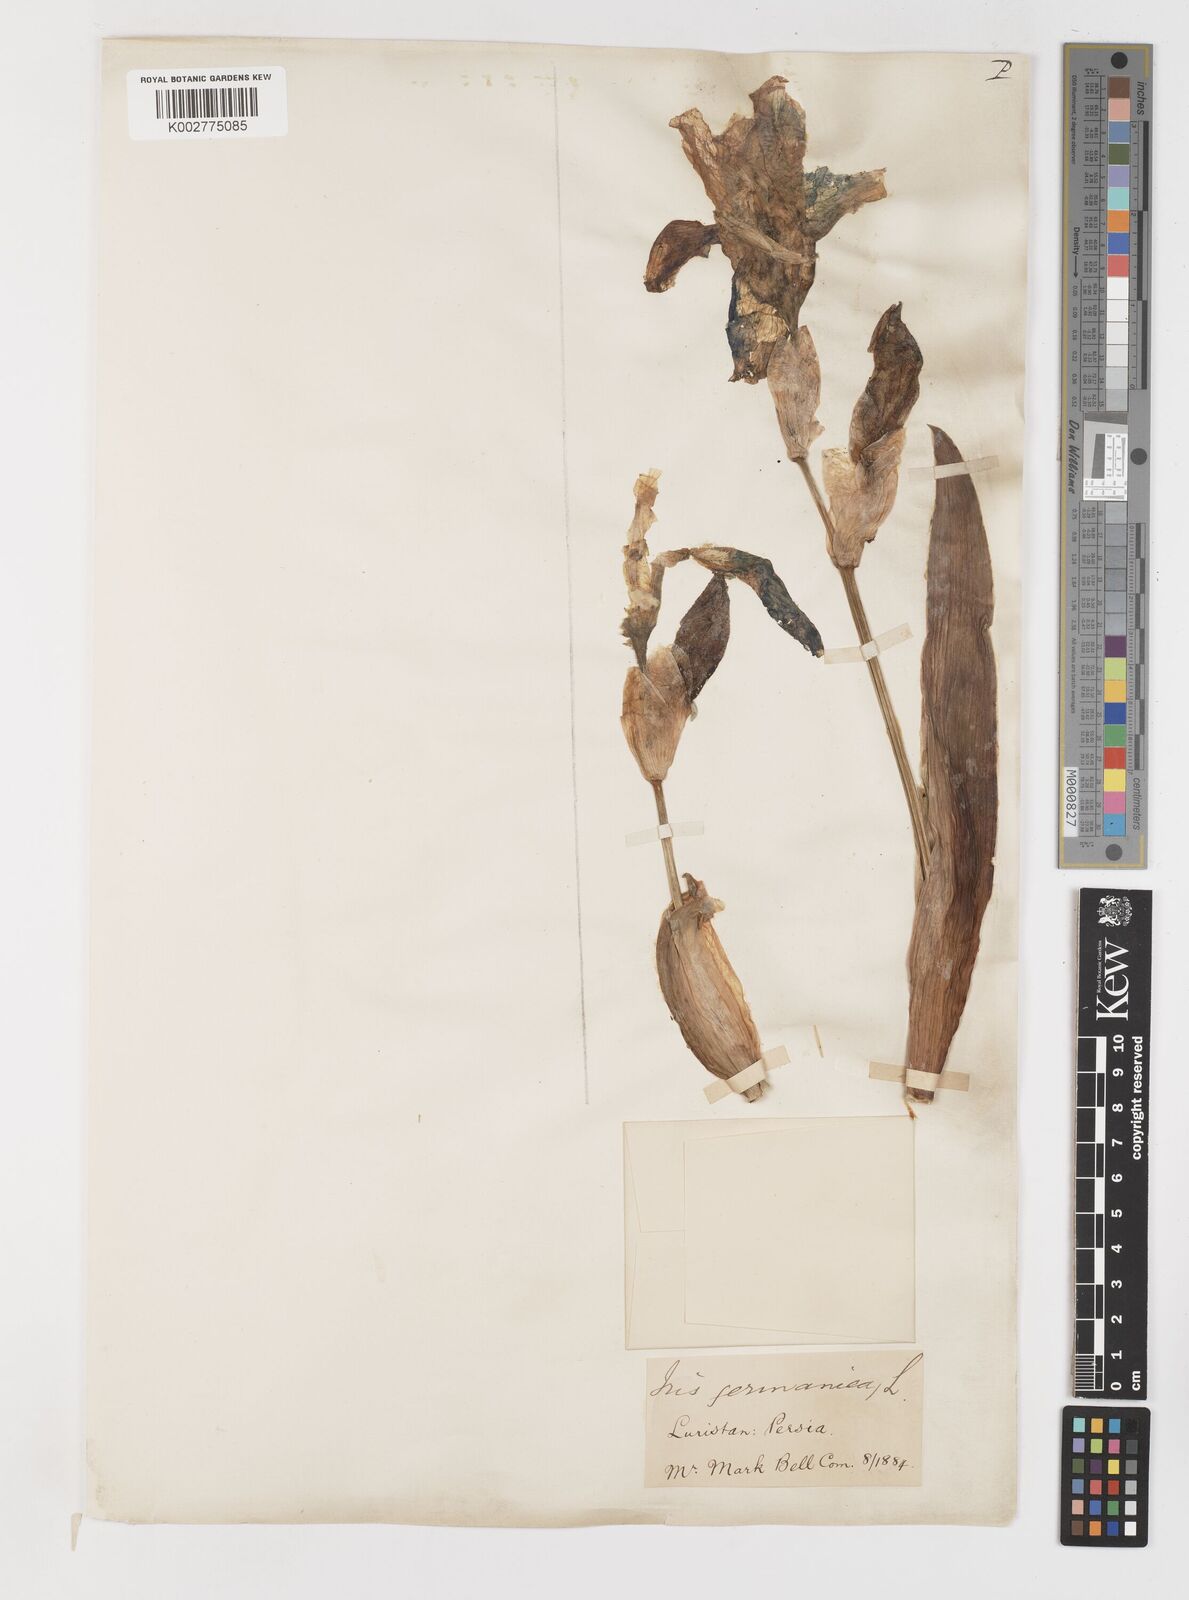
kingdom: Plantae
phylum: Tracheophyta
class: Liliopsida
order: Asparagales
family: Iridaceae
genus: Iris
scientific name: Iris germanica
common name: German iris
